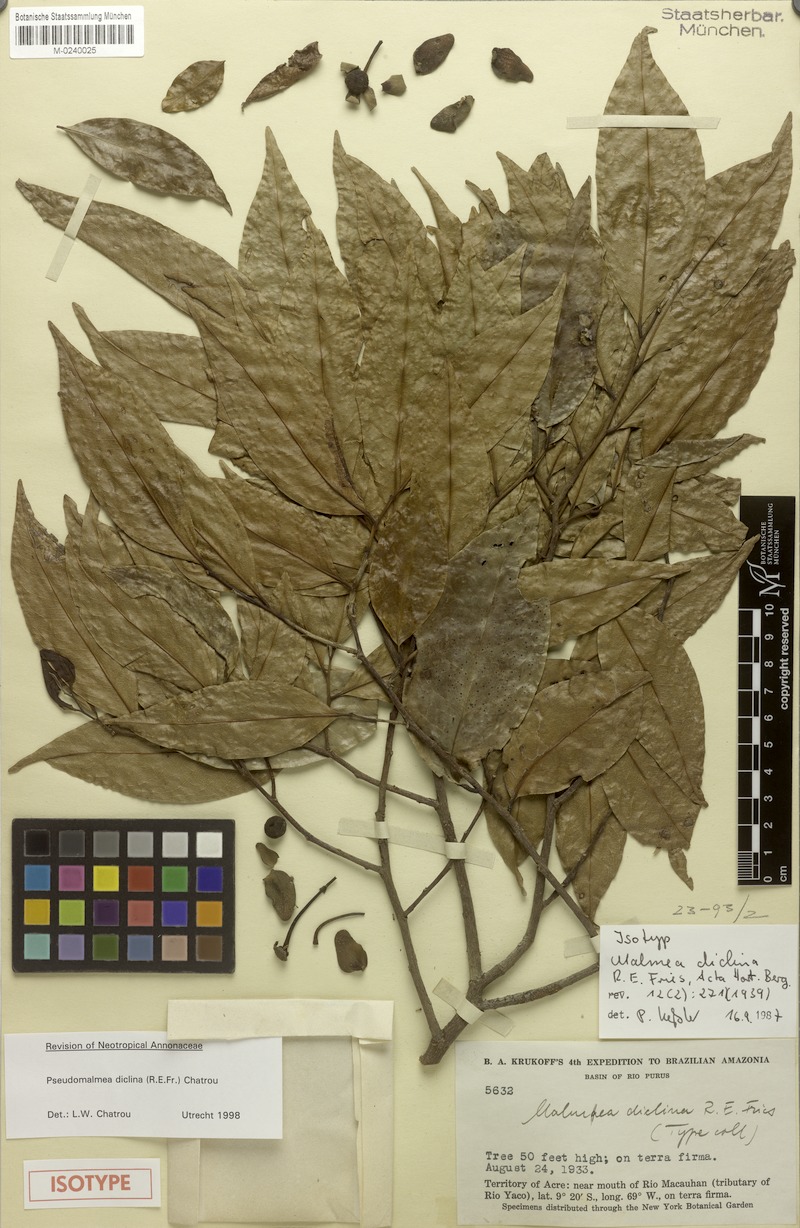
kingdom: Plantae
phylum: Tracheophyta
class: Magnoliopsida
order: Magnoliales
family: Annonaceae
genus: Pseudomalmea
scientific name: Pseudomalmea diclina
